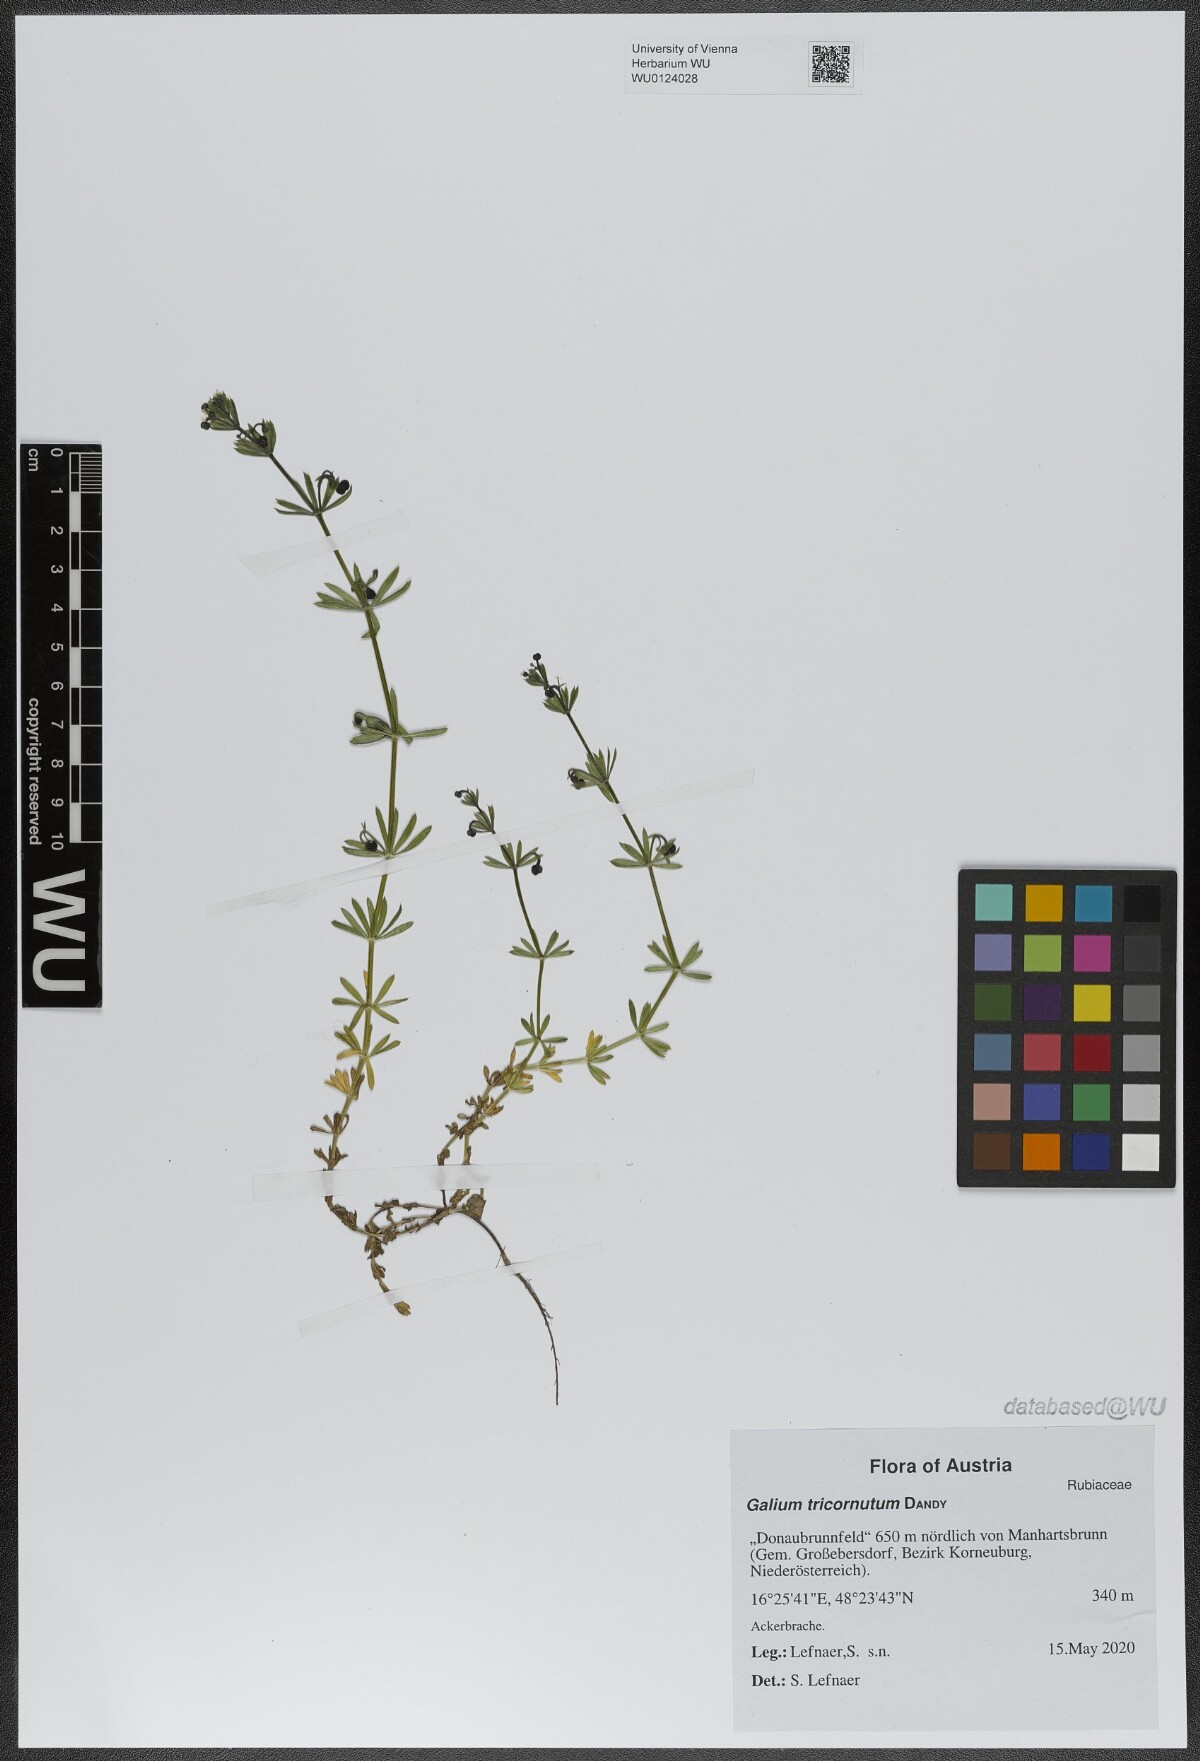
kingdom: Plantae
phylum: Tracheophyta
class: Magnoliopsida
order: Gentianales
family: Rubiaceae
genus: Galium
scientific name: Galium tricornutum
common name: Corn cleavers
